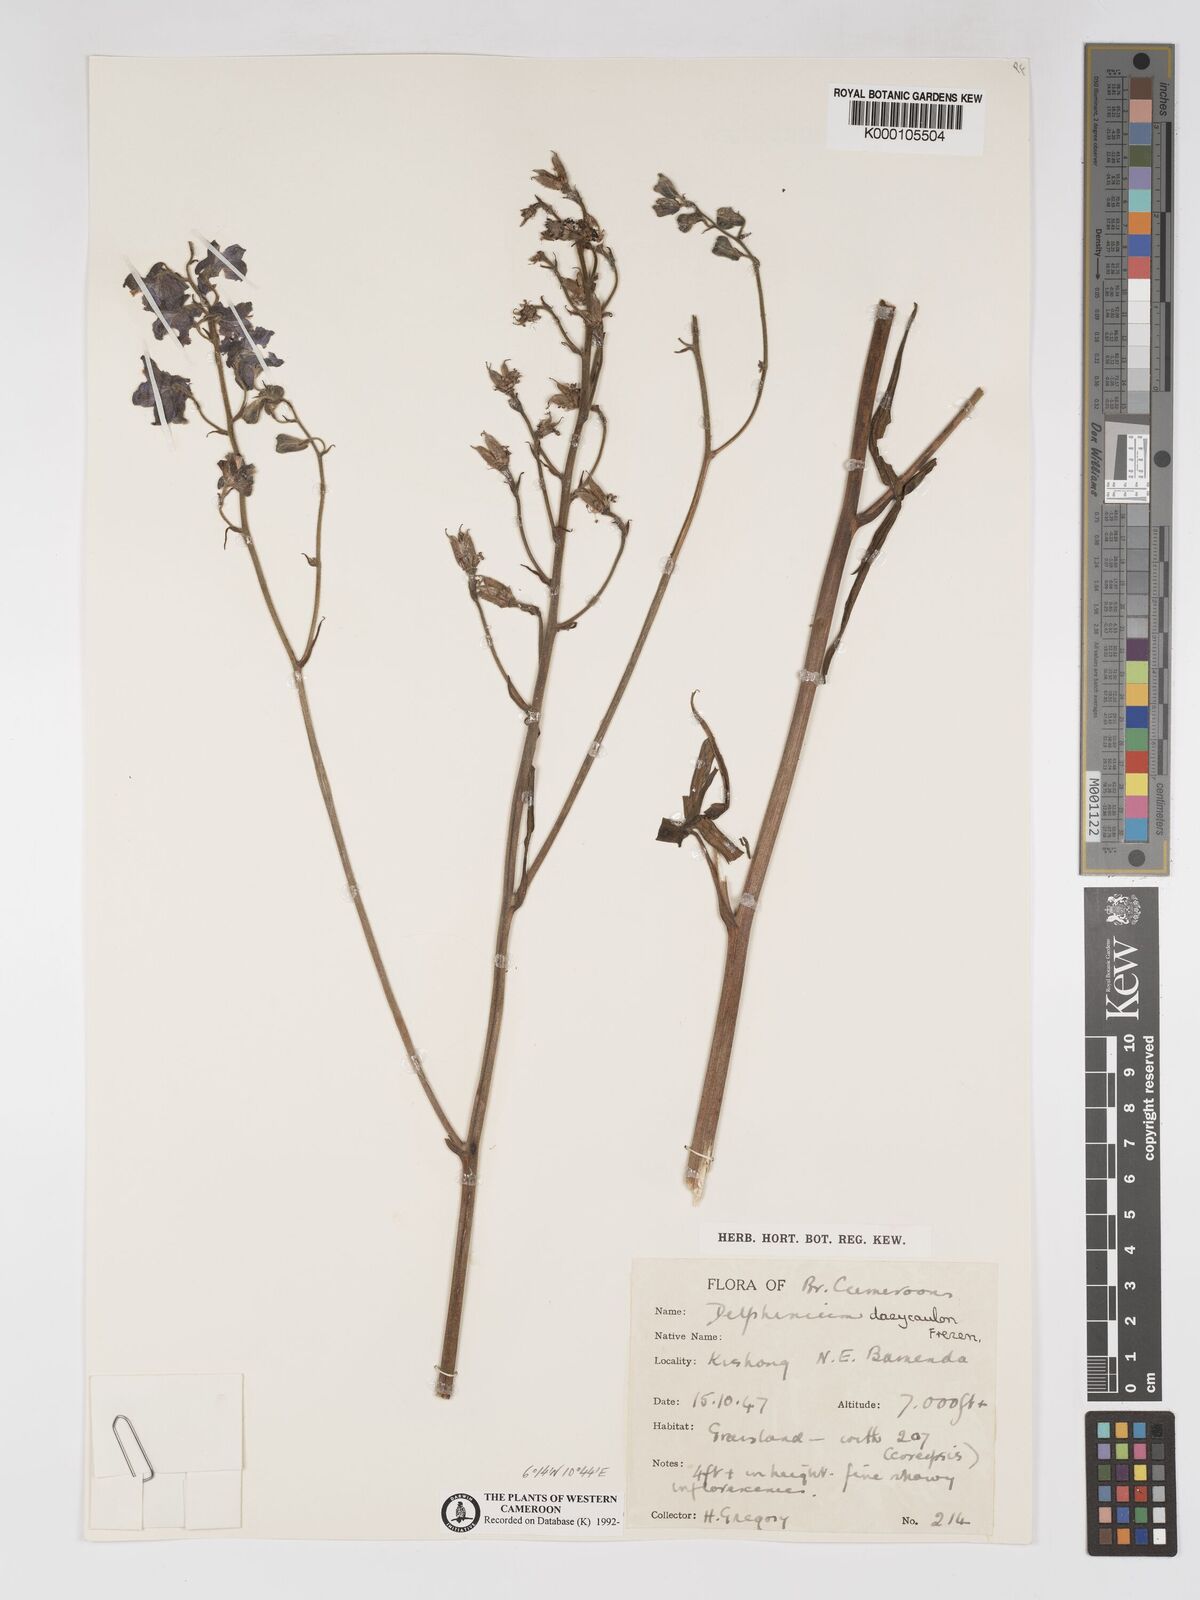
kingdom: Plantae
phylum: Tracheophyta
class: Magnoliopsida
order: Ranunculales
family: Ranunculaceae
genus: Delphinium
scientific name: Delphinium dasycaulon
